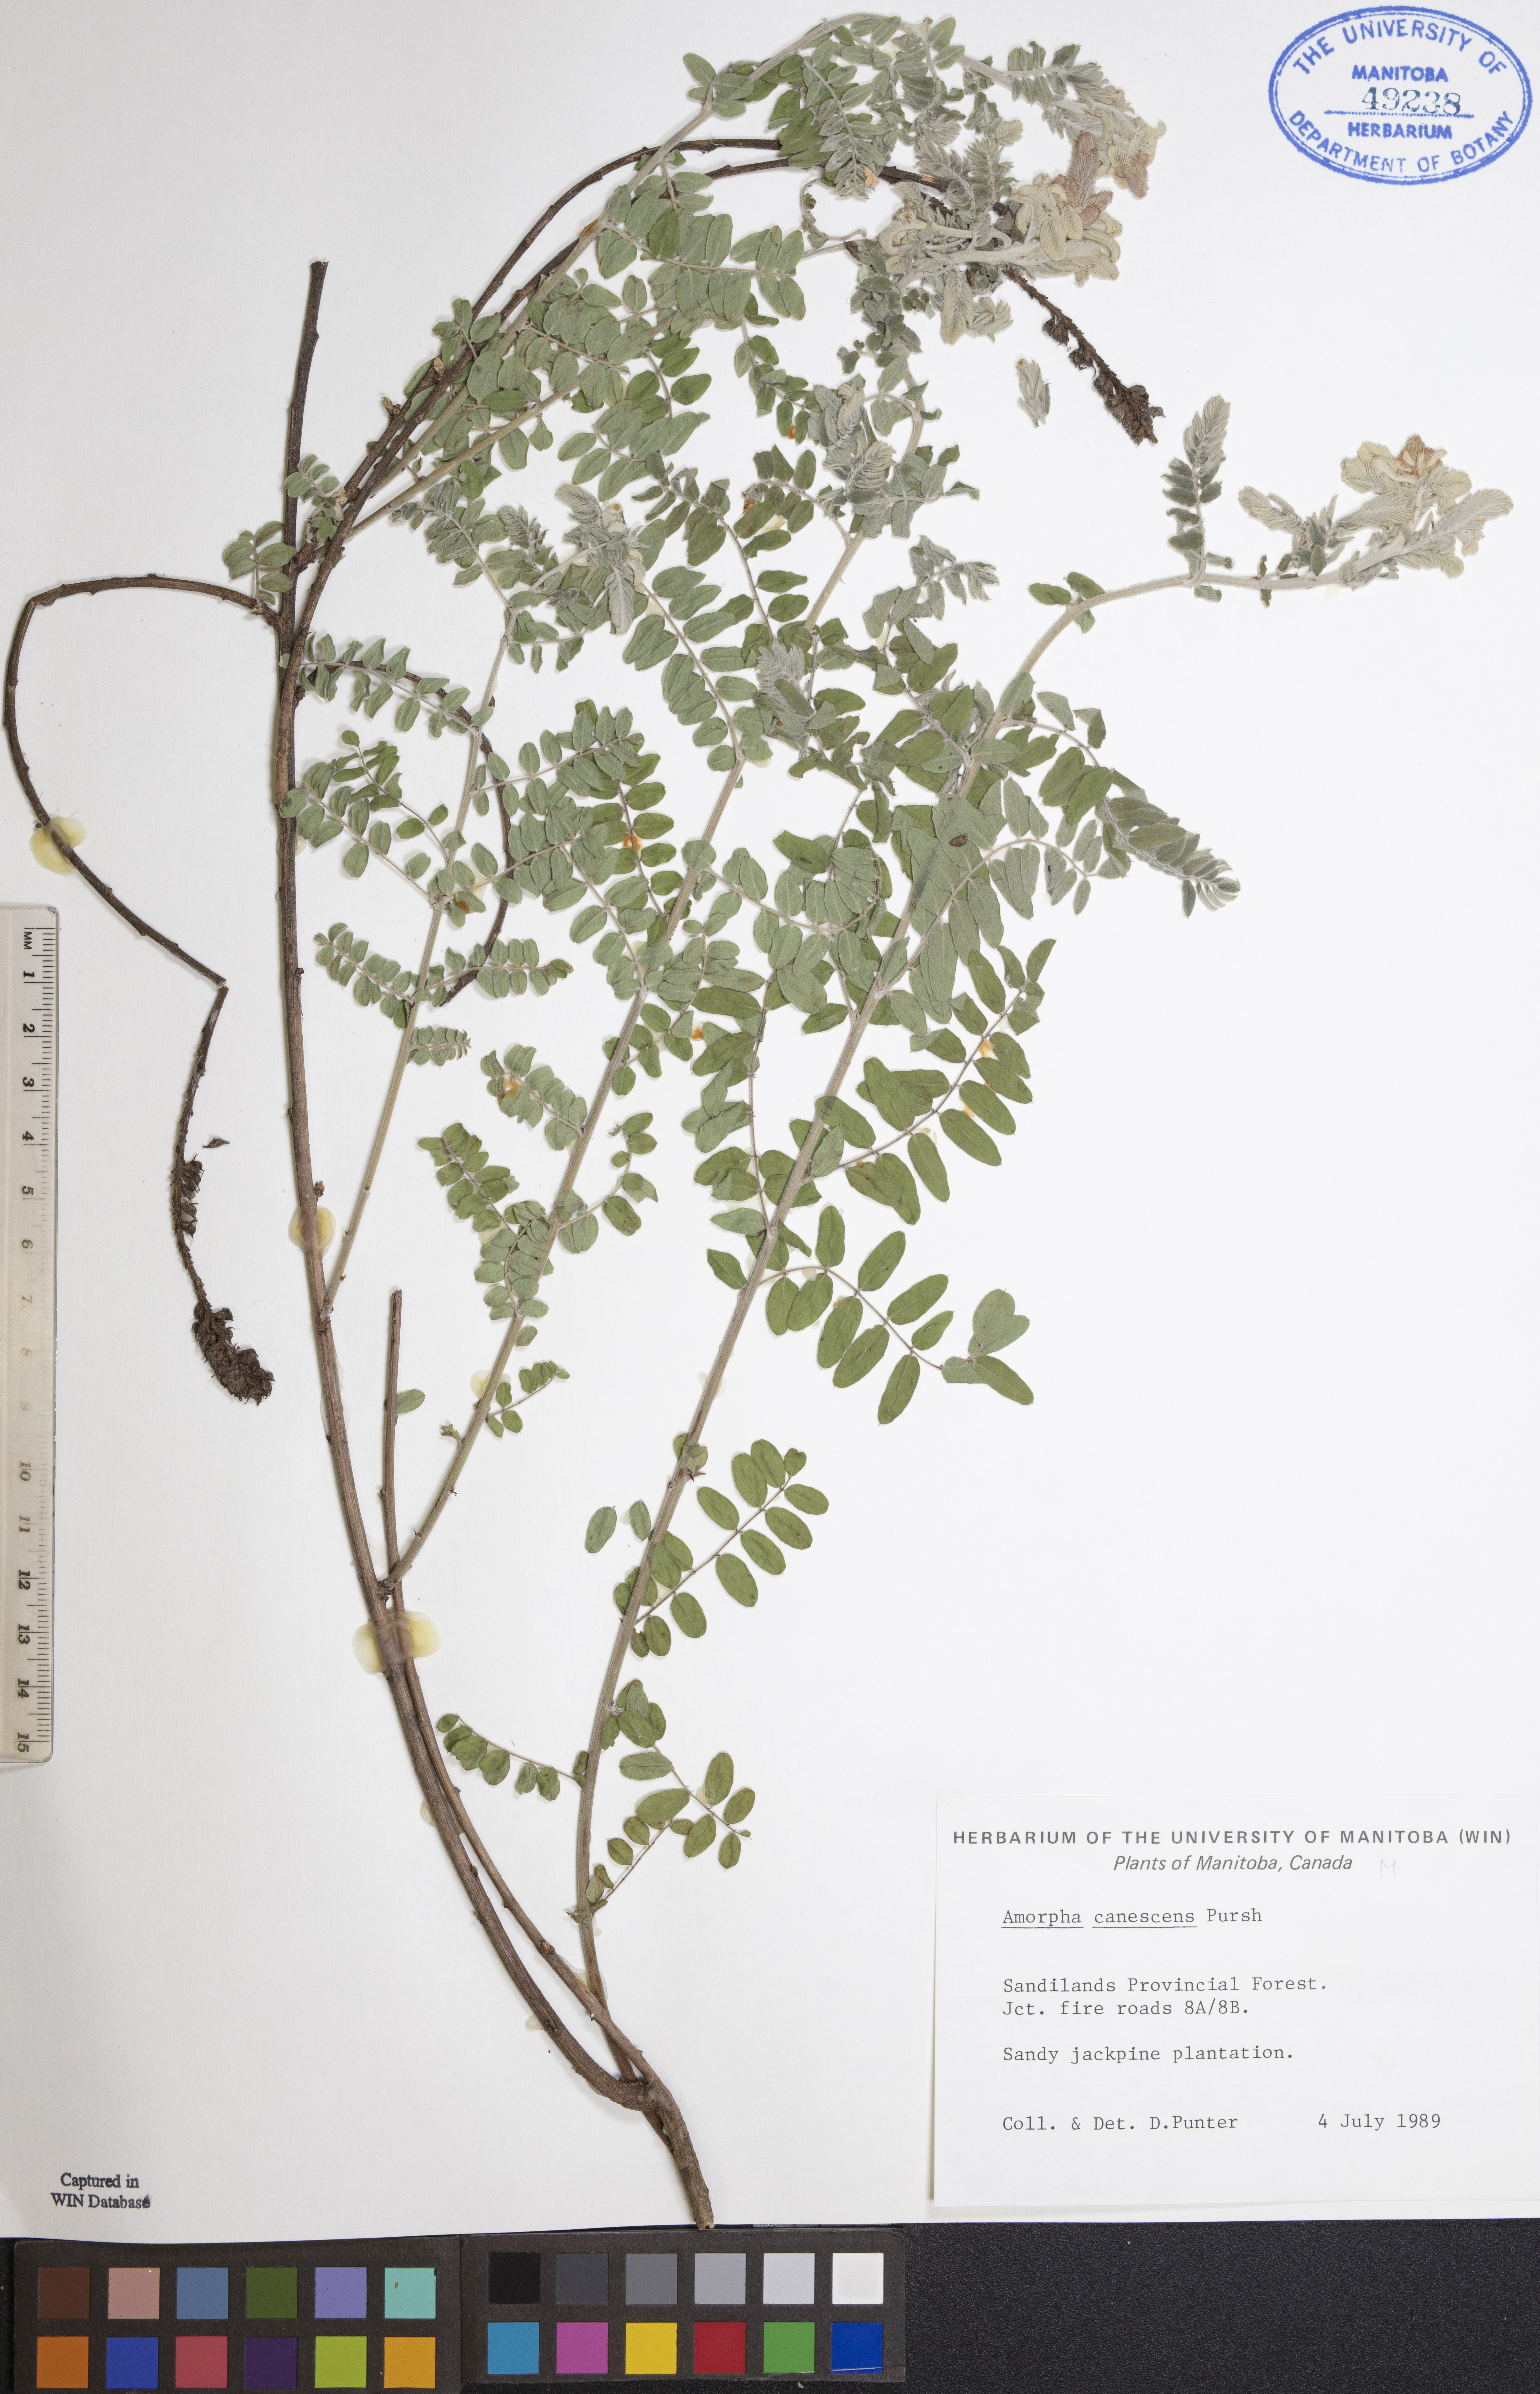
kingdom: Plantae
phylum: Tracheophyta
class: Magnoliopsida
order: Fabales
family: Fabaceae
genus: Amorpha
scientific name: Amorpha canescens
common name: Leadplant
